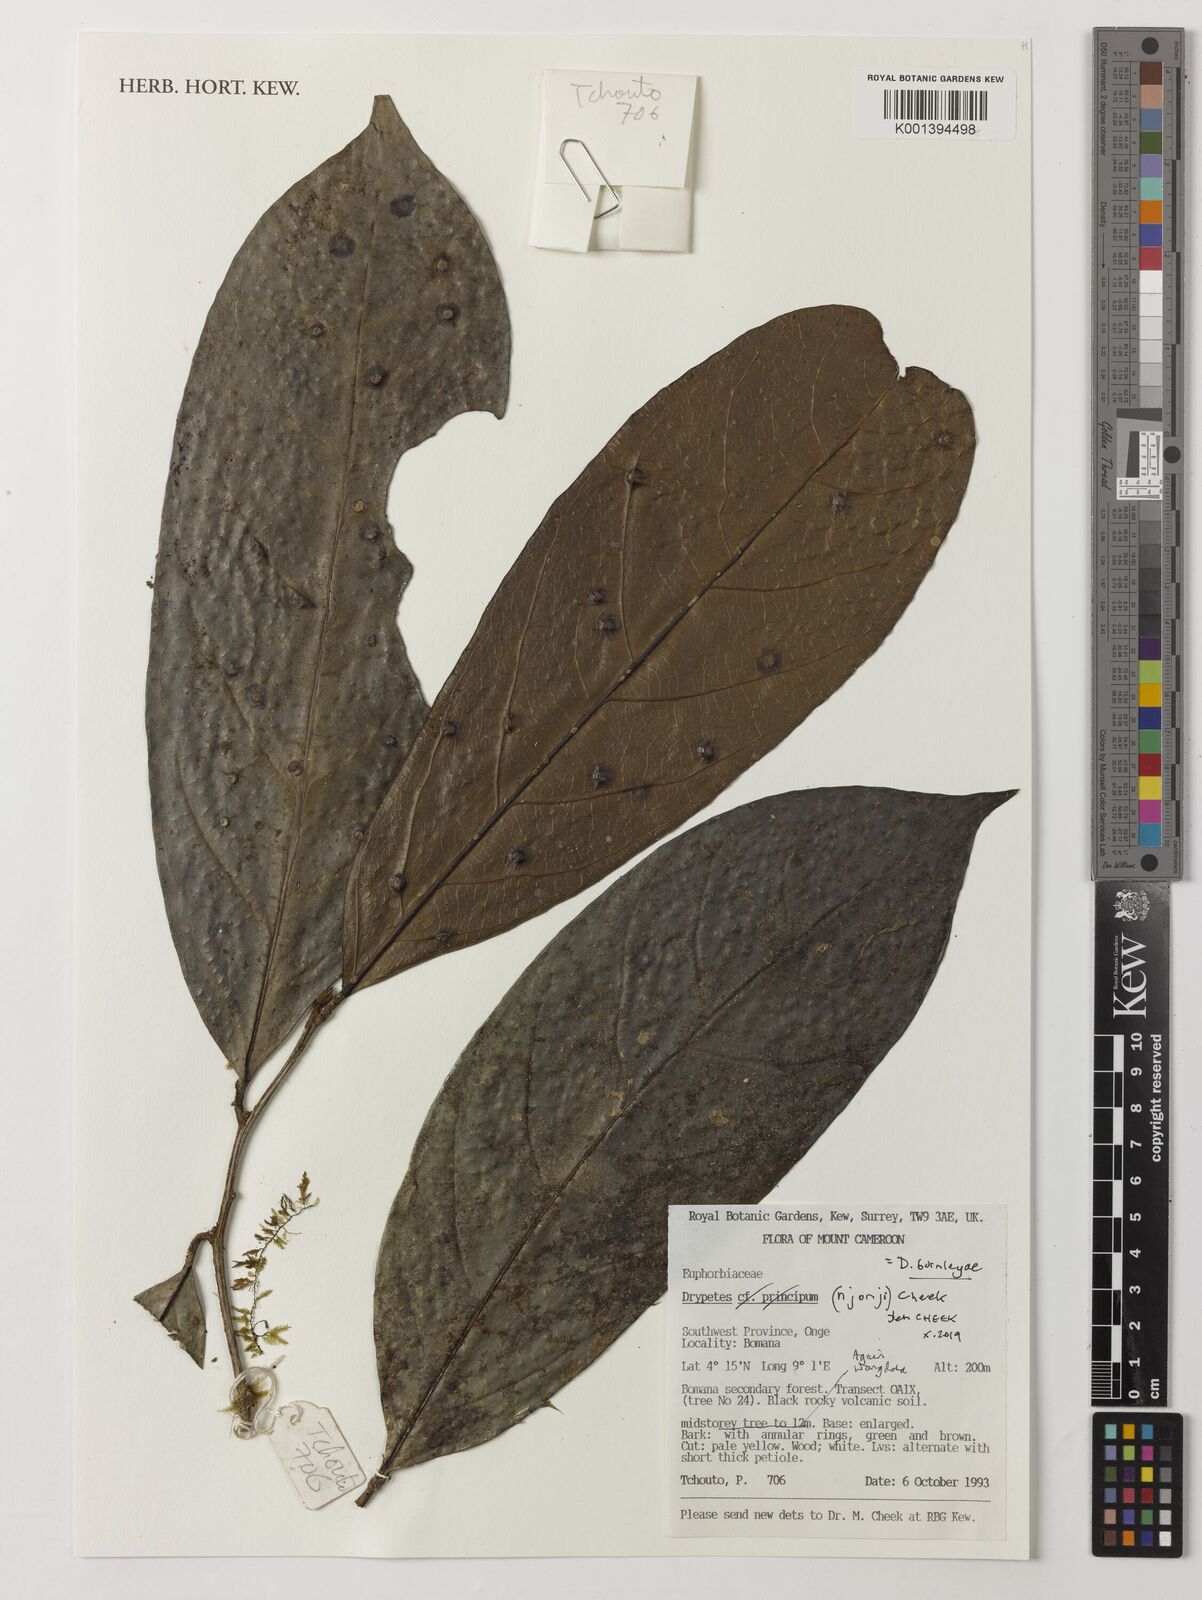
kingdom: Plantae
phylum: Tracheophyta
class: Magnoliopsida
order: Malpighiales
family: Putranjivaceae
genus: Drypetes
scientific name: Drypetes
